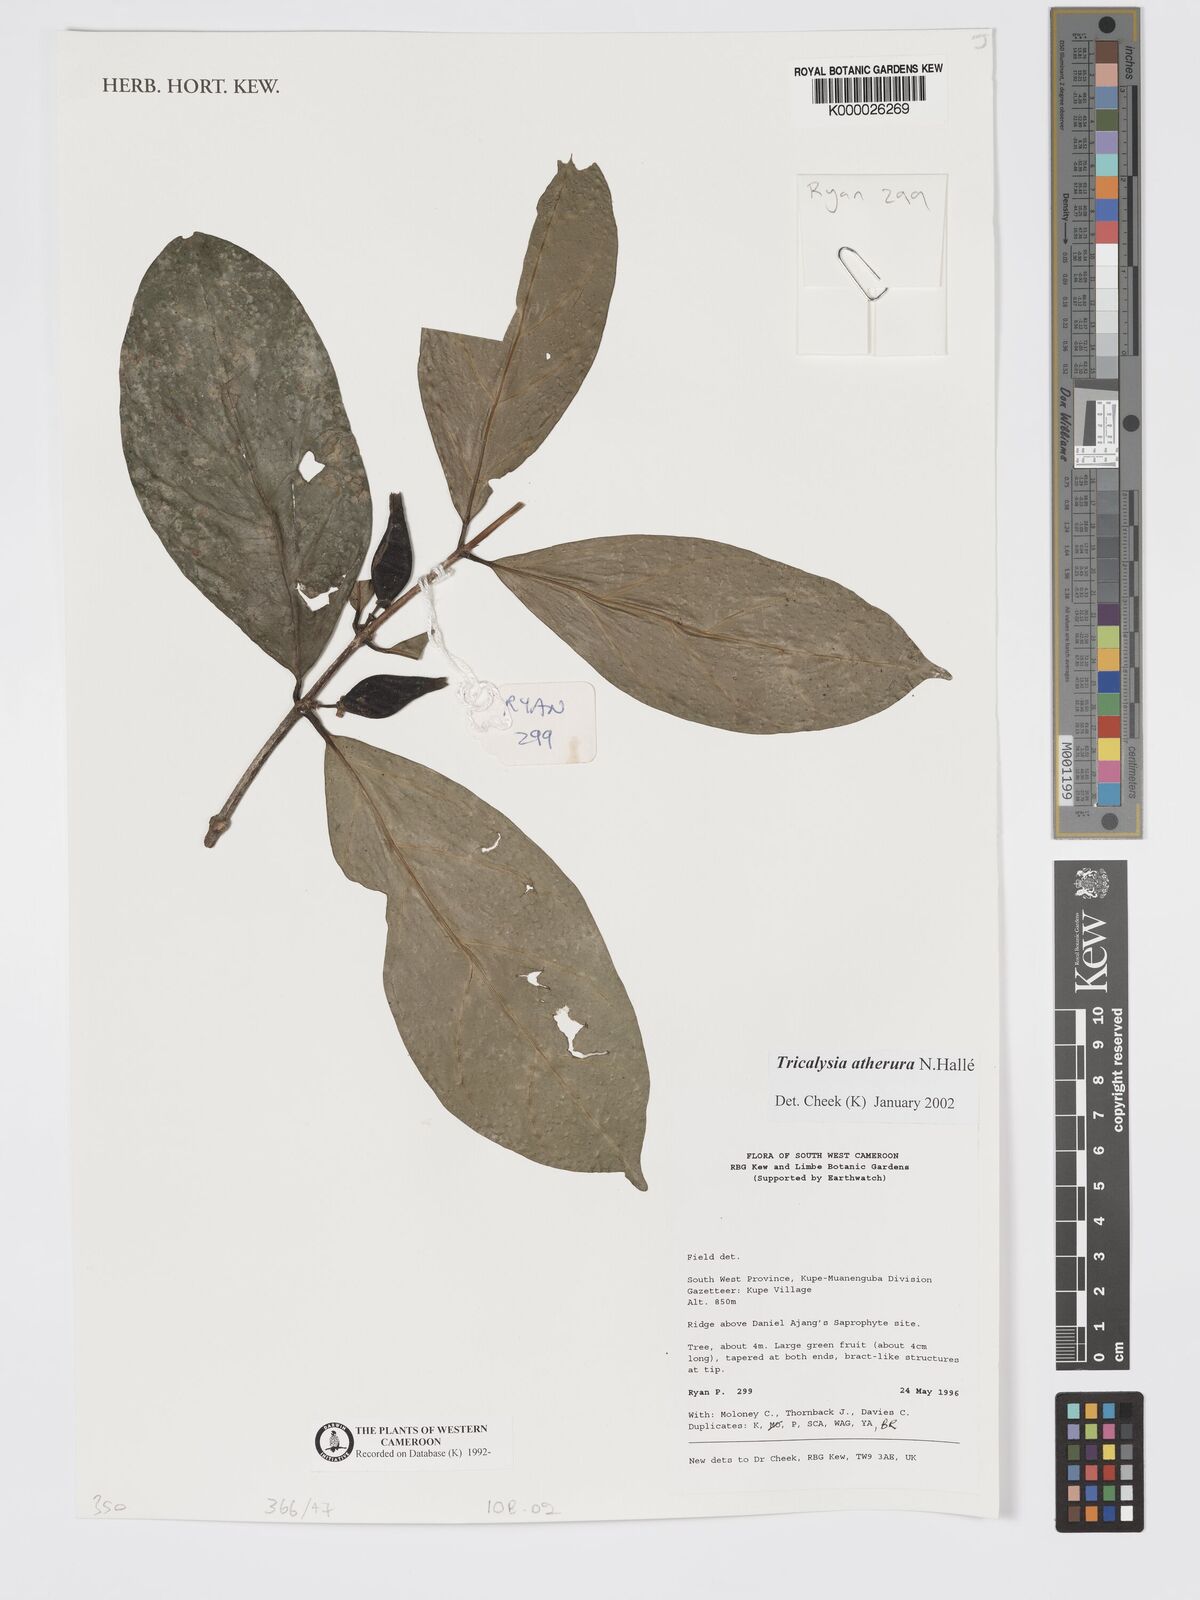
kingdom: Plantae
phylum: Tracheophyta
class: Magnoliopsida
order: Gentianales
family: Rubiaceae
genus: Tricalysia
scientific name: Tricalysia
